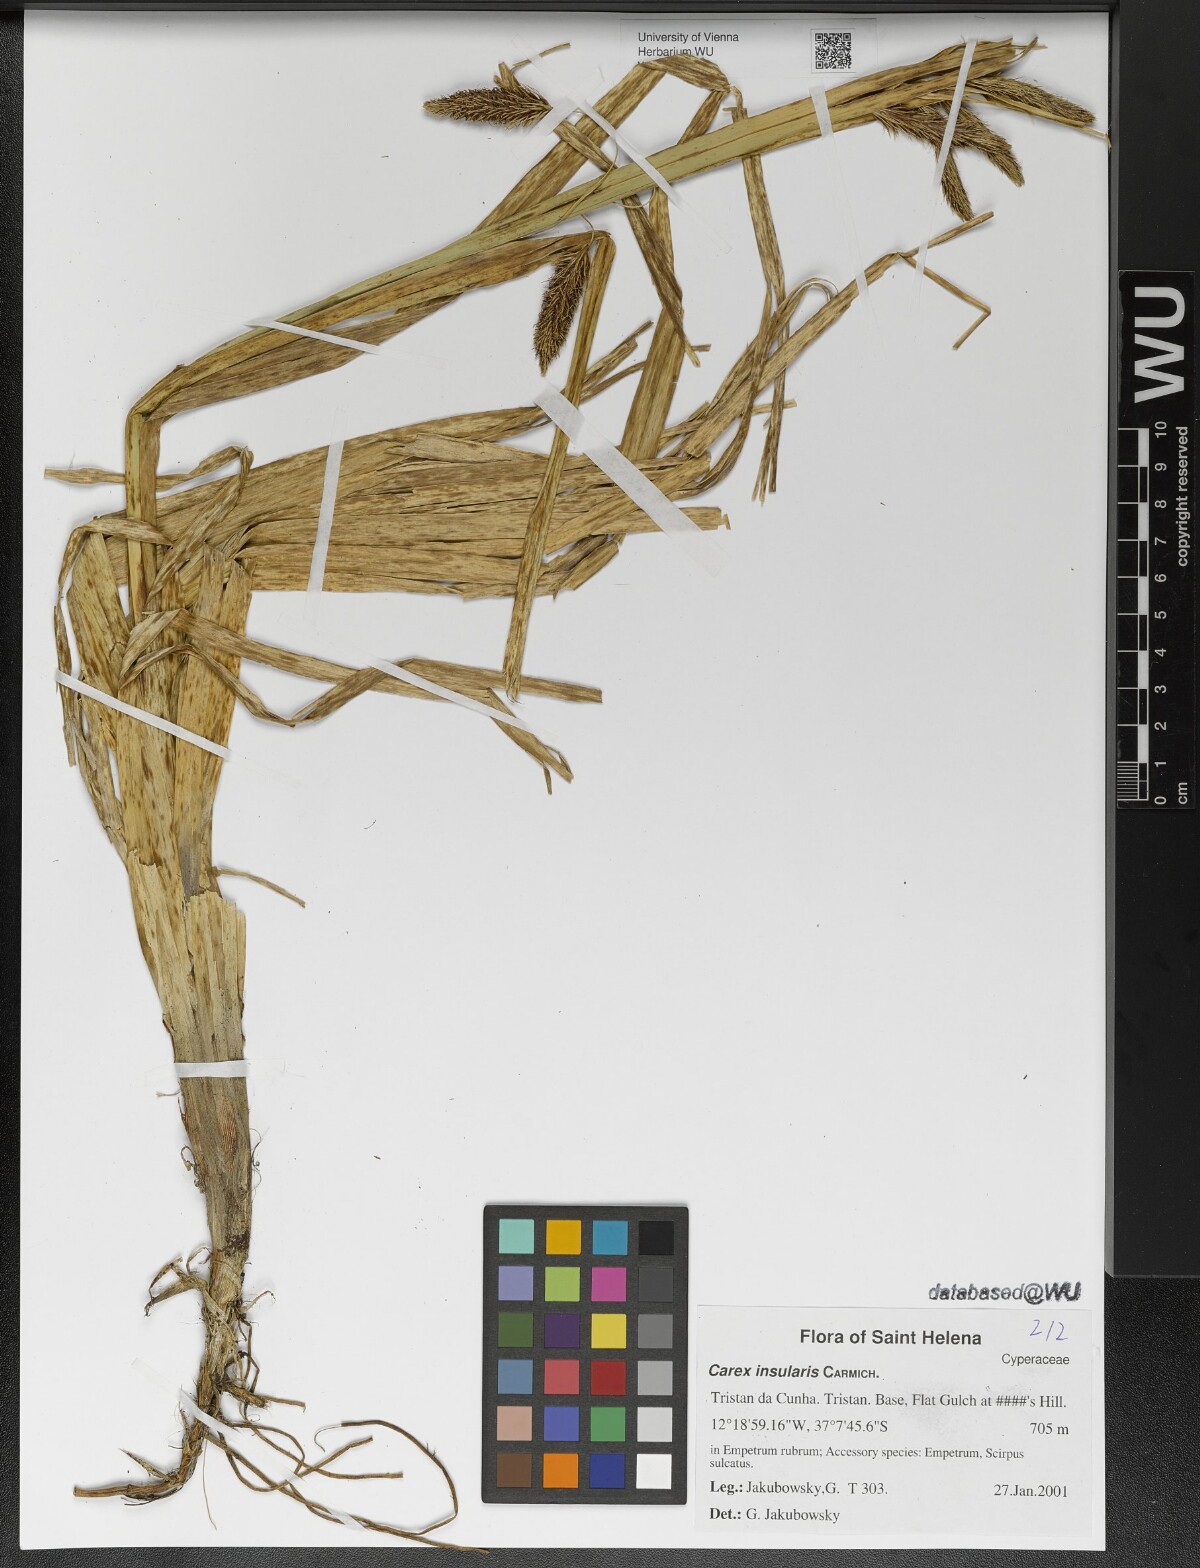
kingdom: Plantae
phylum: Tracheophyta
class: Liliopsida
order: Poales
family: Cyperaceae
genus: Carex
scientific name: Carex insularis
